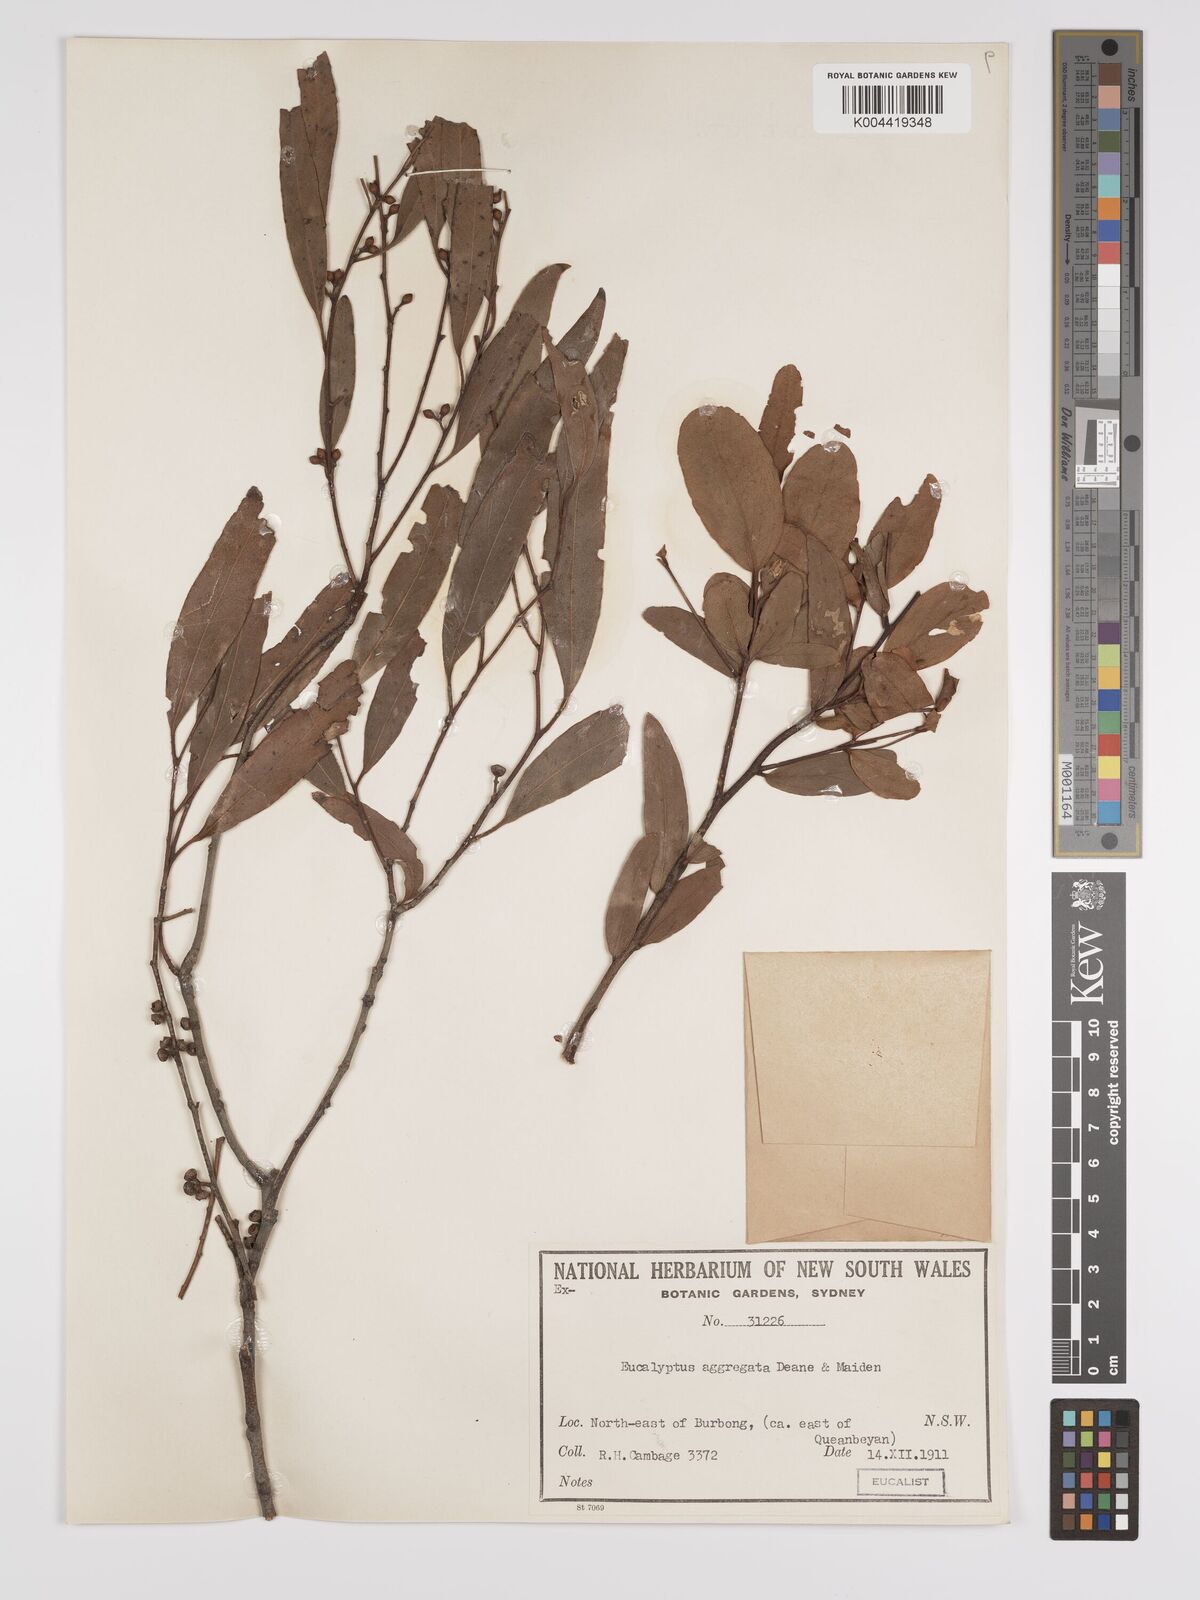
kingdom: Plantae
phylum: Tracheophyta
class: Magnoliopsida
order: Myrtales
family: Myrtaceae
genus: Eucalyptus
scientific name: Eucalyptus aggregata
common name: Black gum
